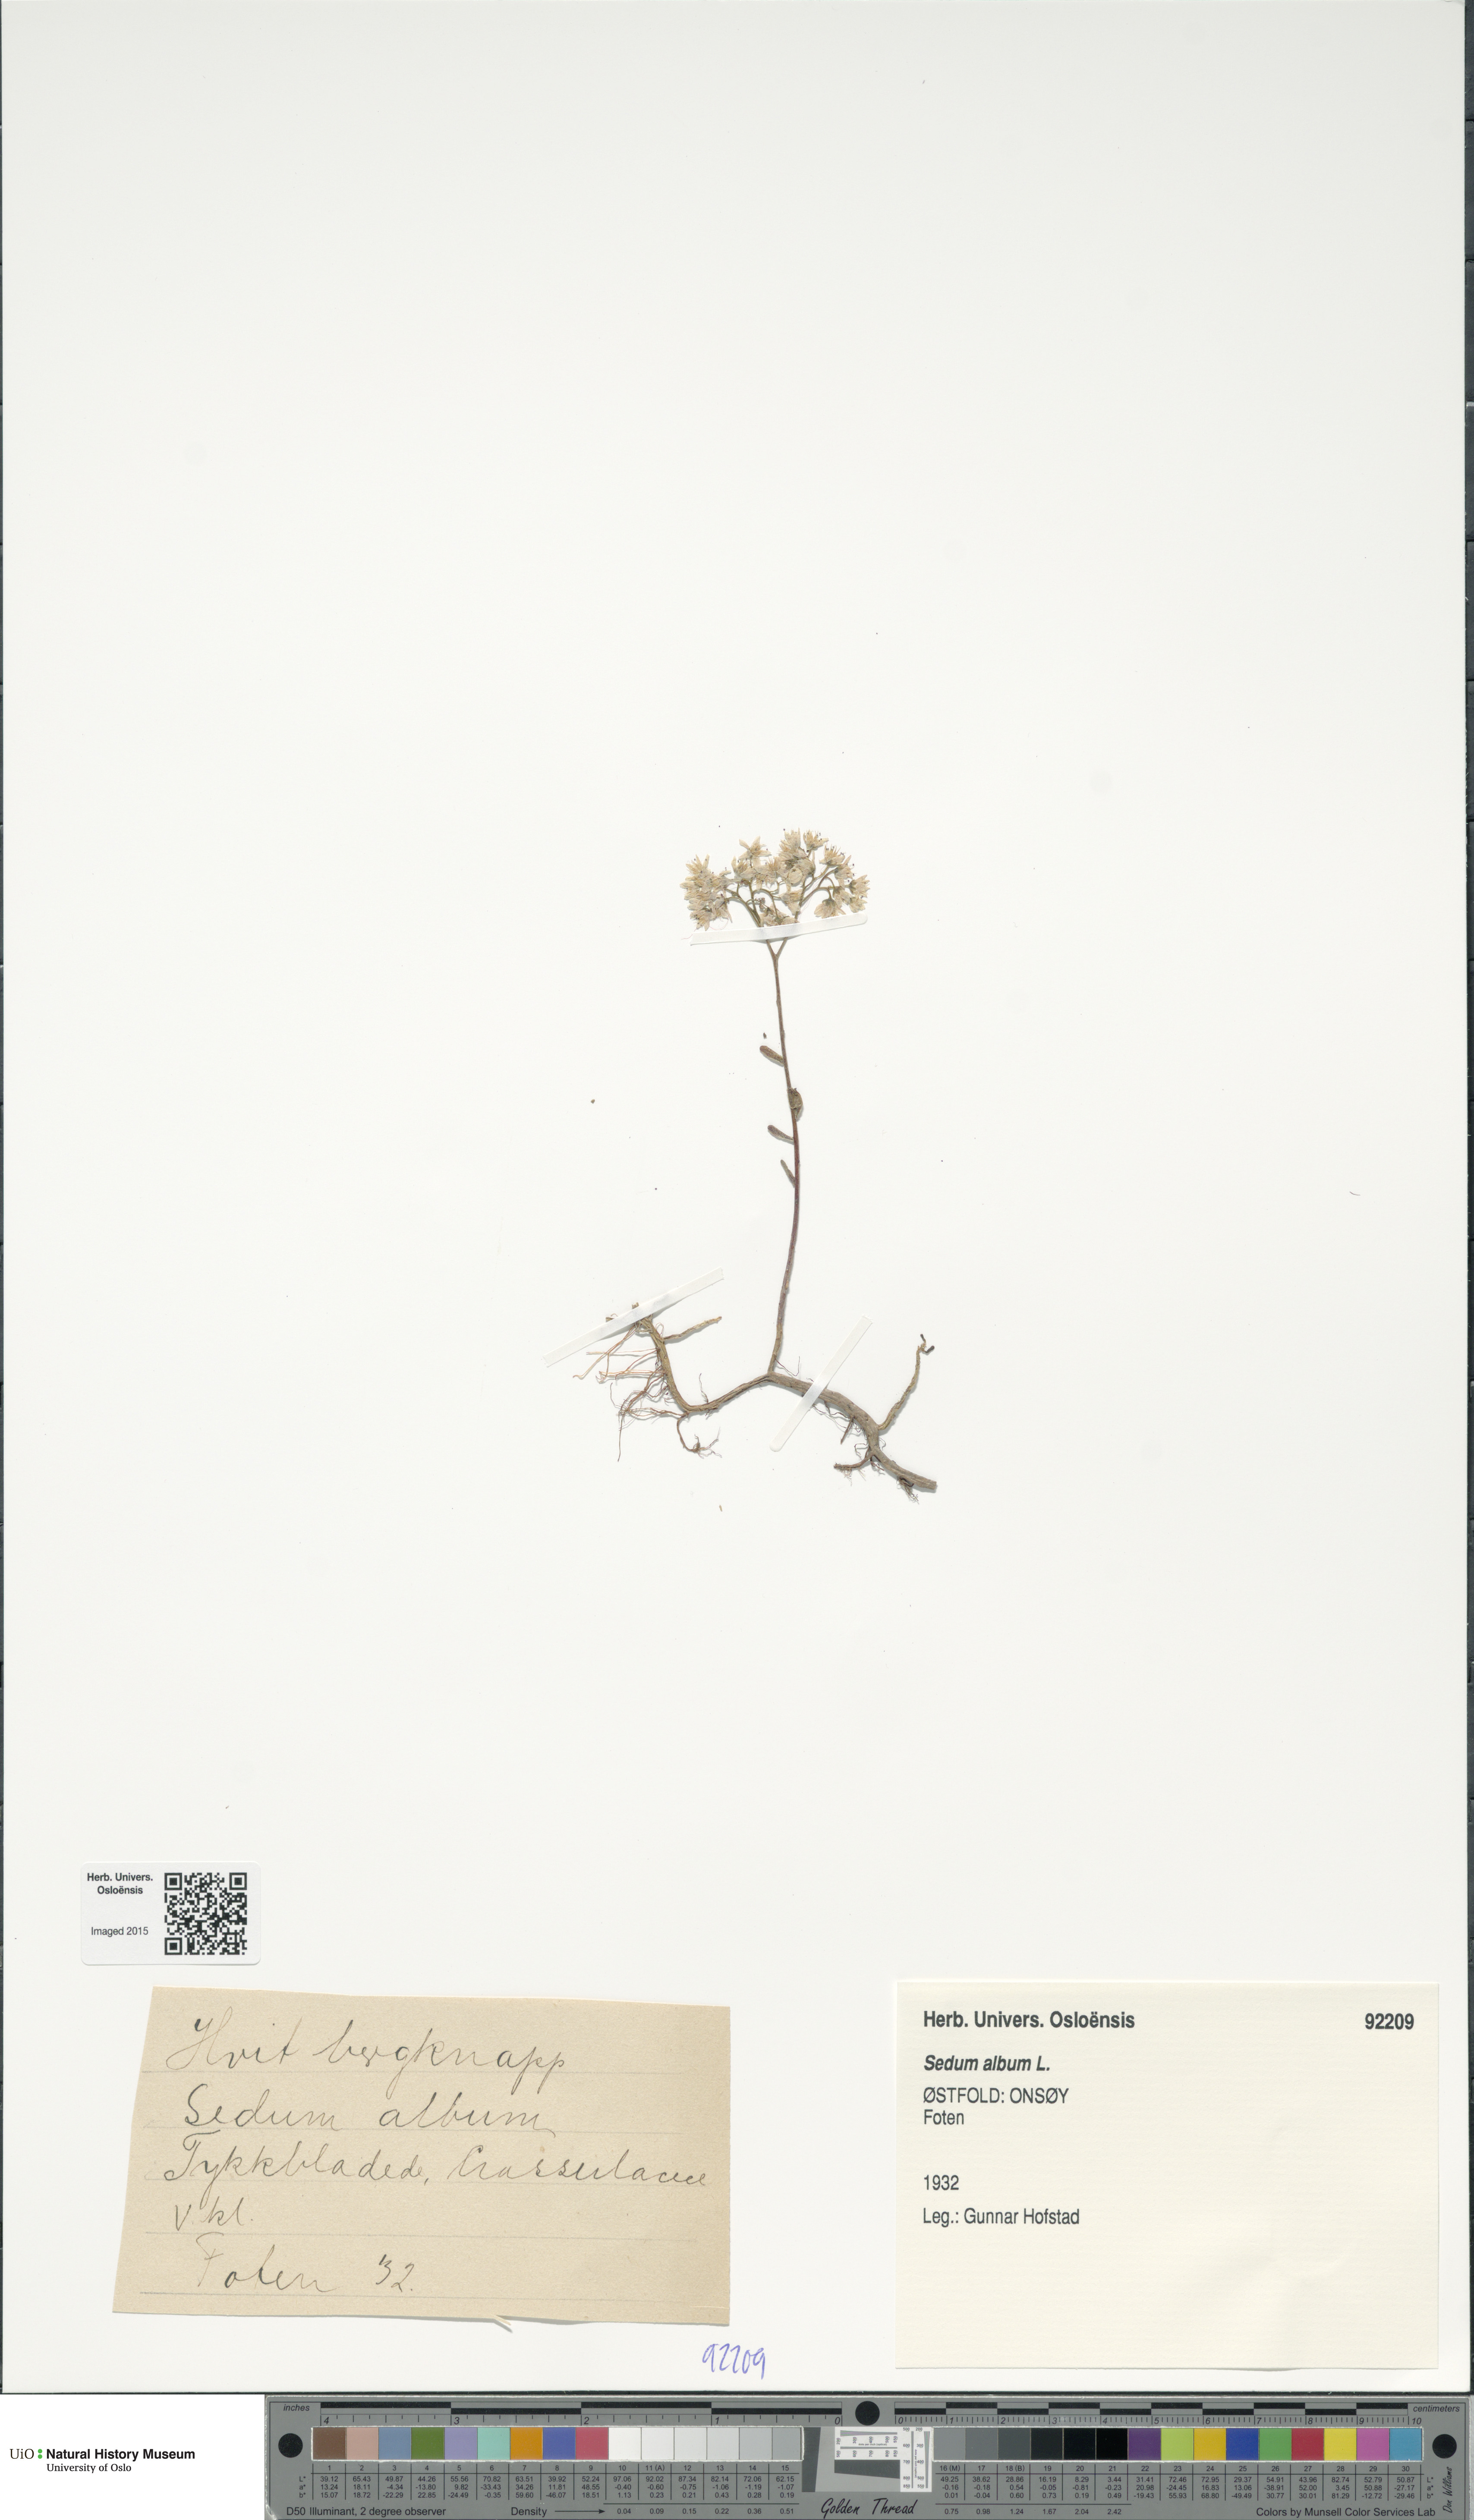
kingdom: Plantae
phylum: Tracheophyta
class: Magnoliopsida
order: Saxifragales
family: Crassulaceae
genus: Sedum
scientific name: Sedum album
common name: White stonecrop
